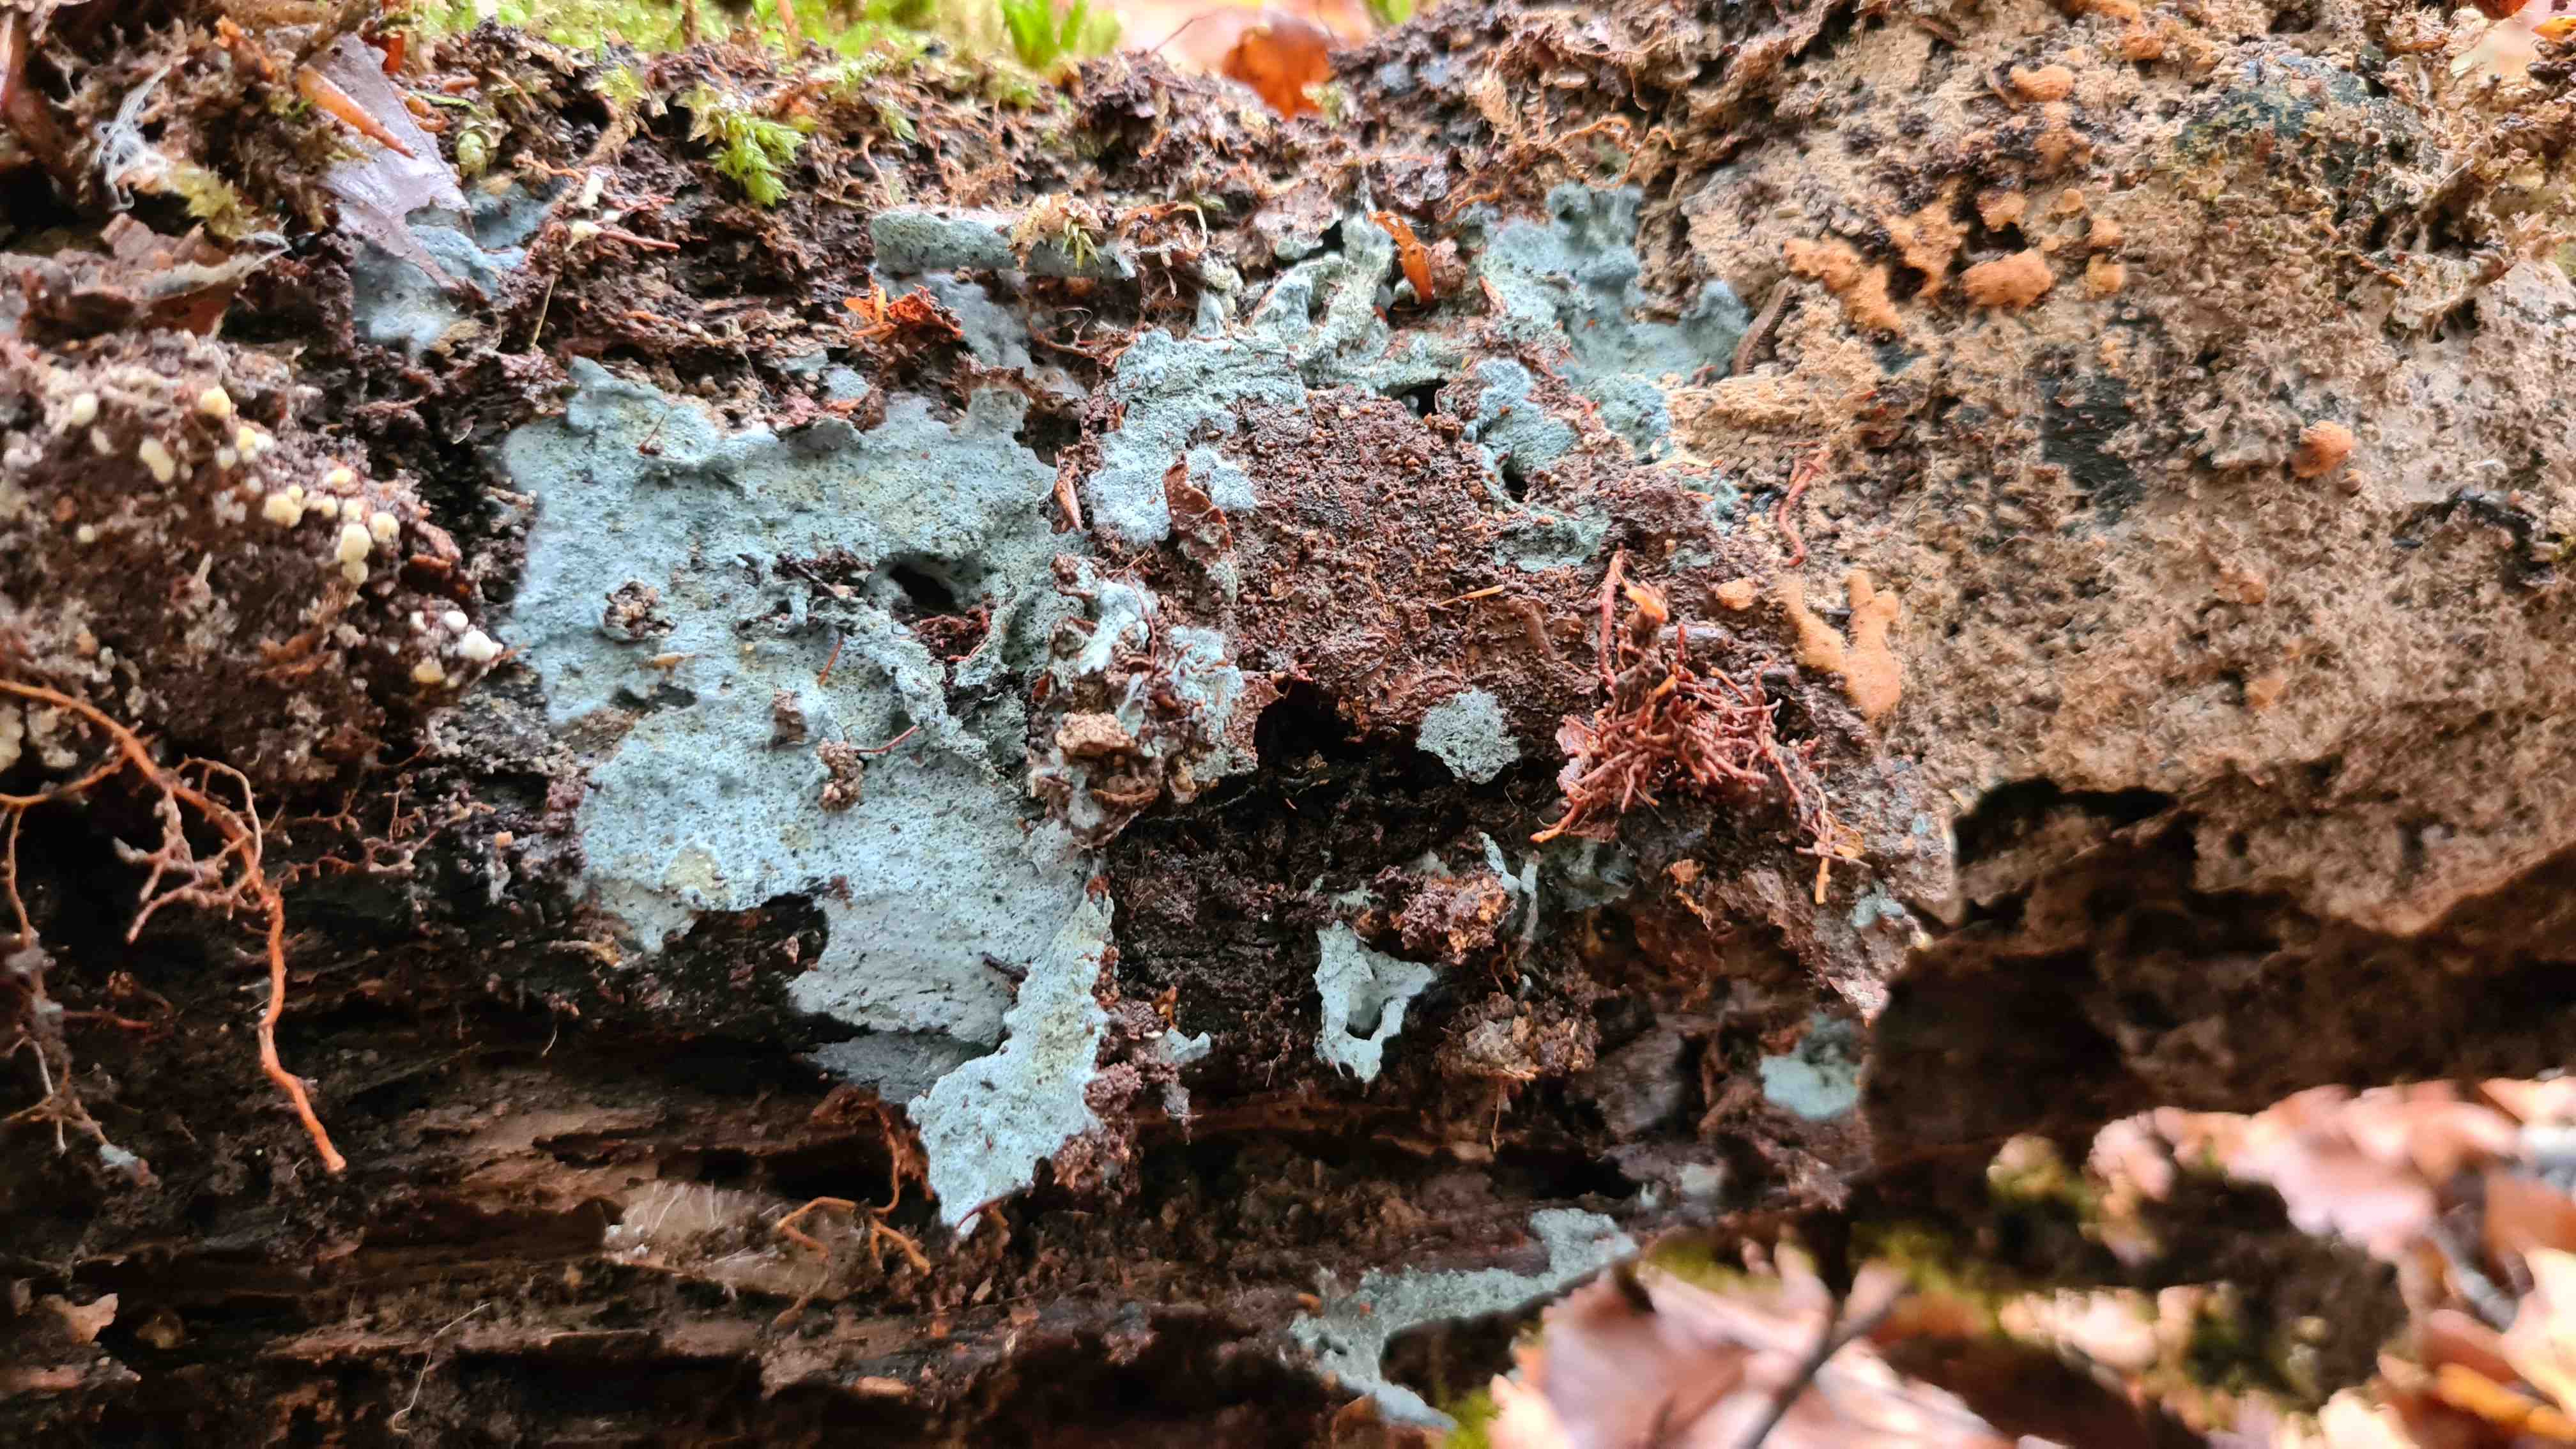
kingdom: Fungi
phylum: Basidiomycota
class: Agaricomycetes
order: Atheliales
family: Atheliaceae
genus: Byssocorticium
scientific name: Byssocorticium atrovirens
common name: blå førnehinde
